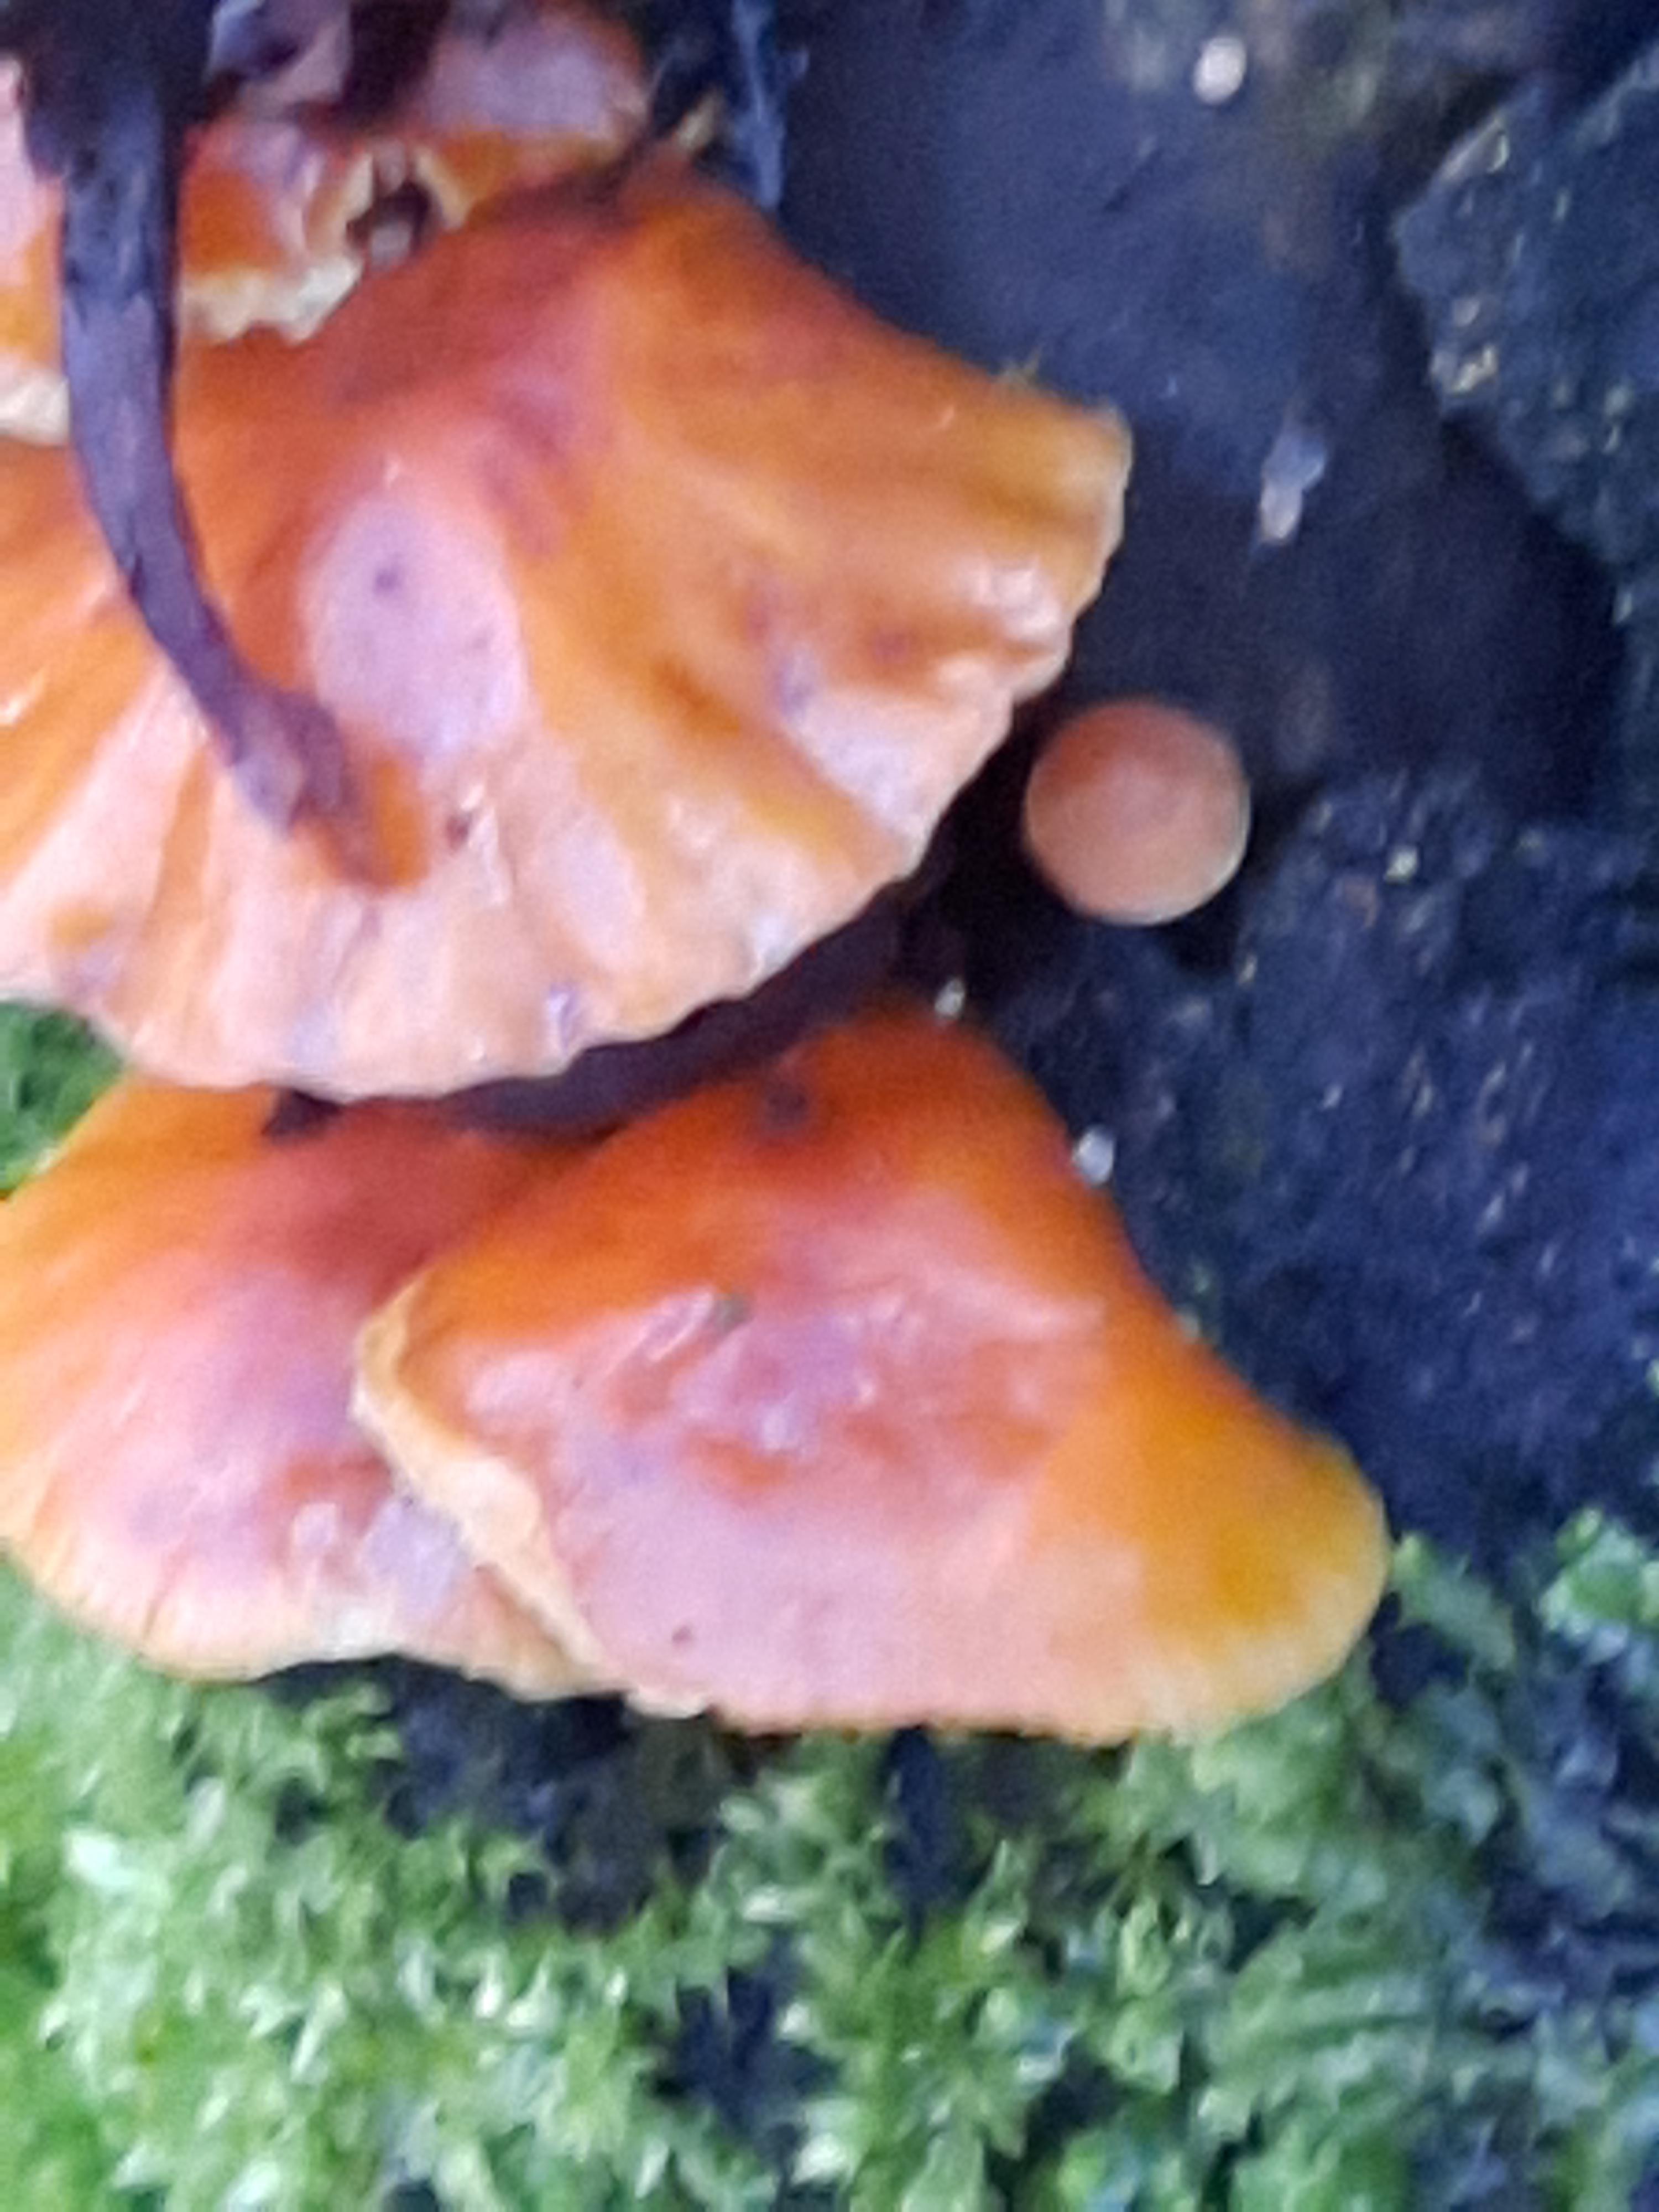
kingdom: Fungi
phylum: Basidiomycota
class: Agaricomycetes
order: Agaricales
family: Physalacriaceae
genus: Flammulina
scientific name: Flammulina velutipes
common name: gul fløjlsfod
